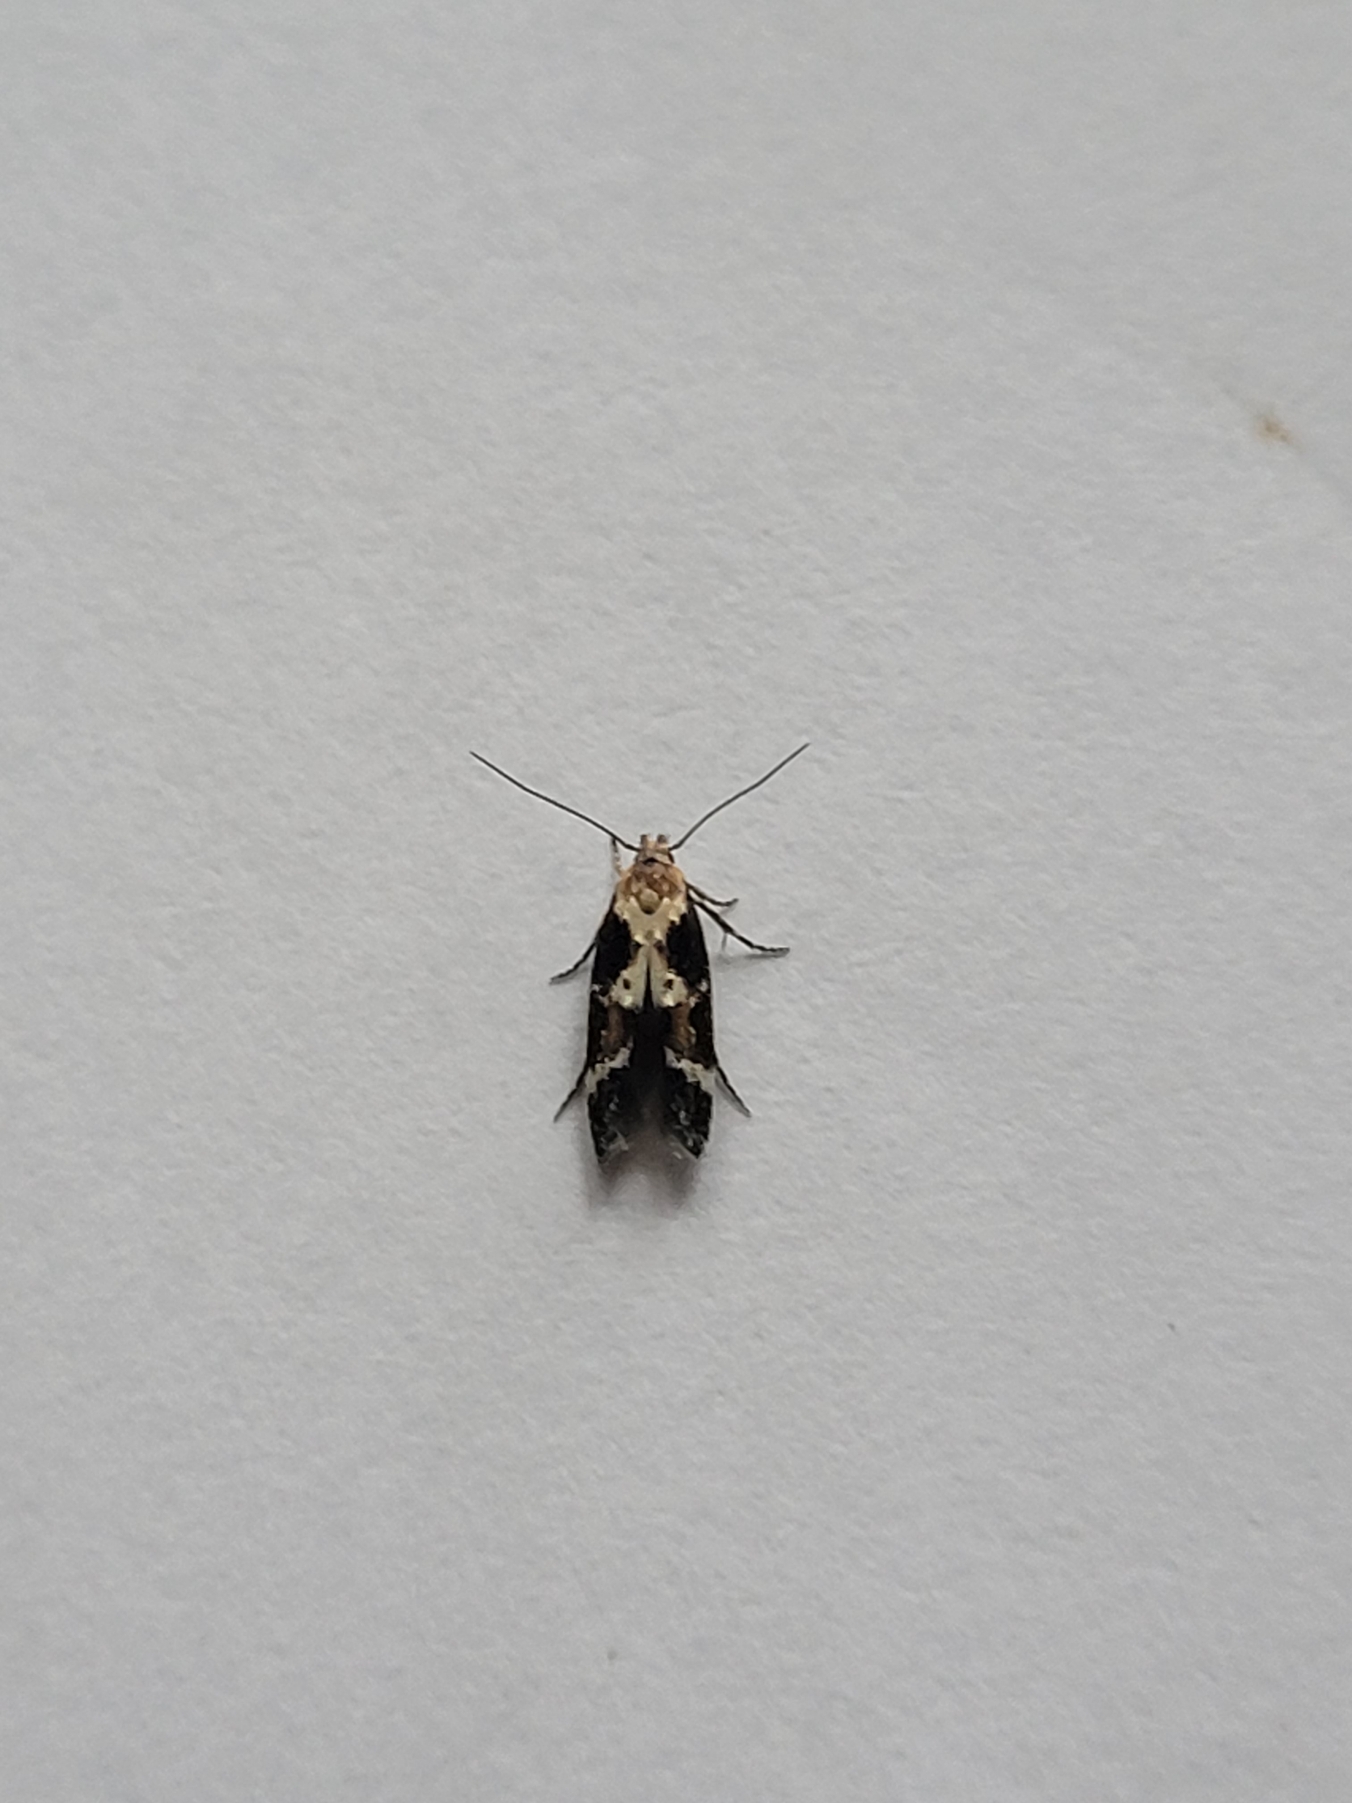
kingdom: Animalia
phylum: Arthropoda
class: Insecta
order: Lepidoptera
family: Momphidae
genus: Mompha
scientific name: Mompha decorella
